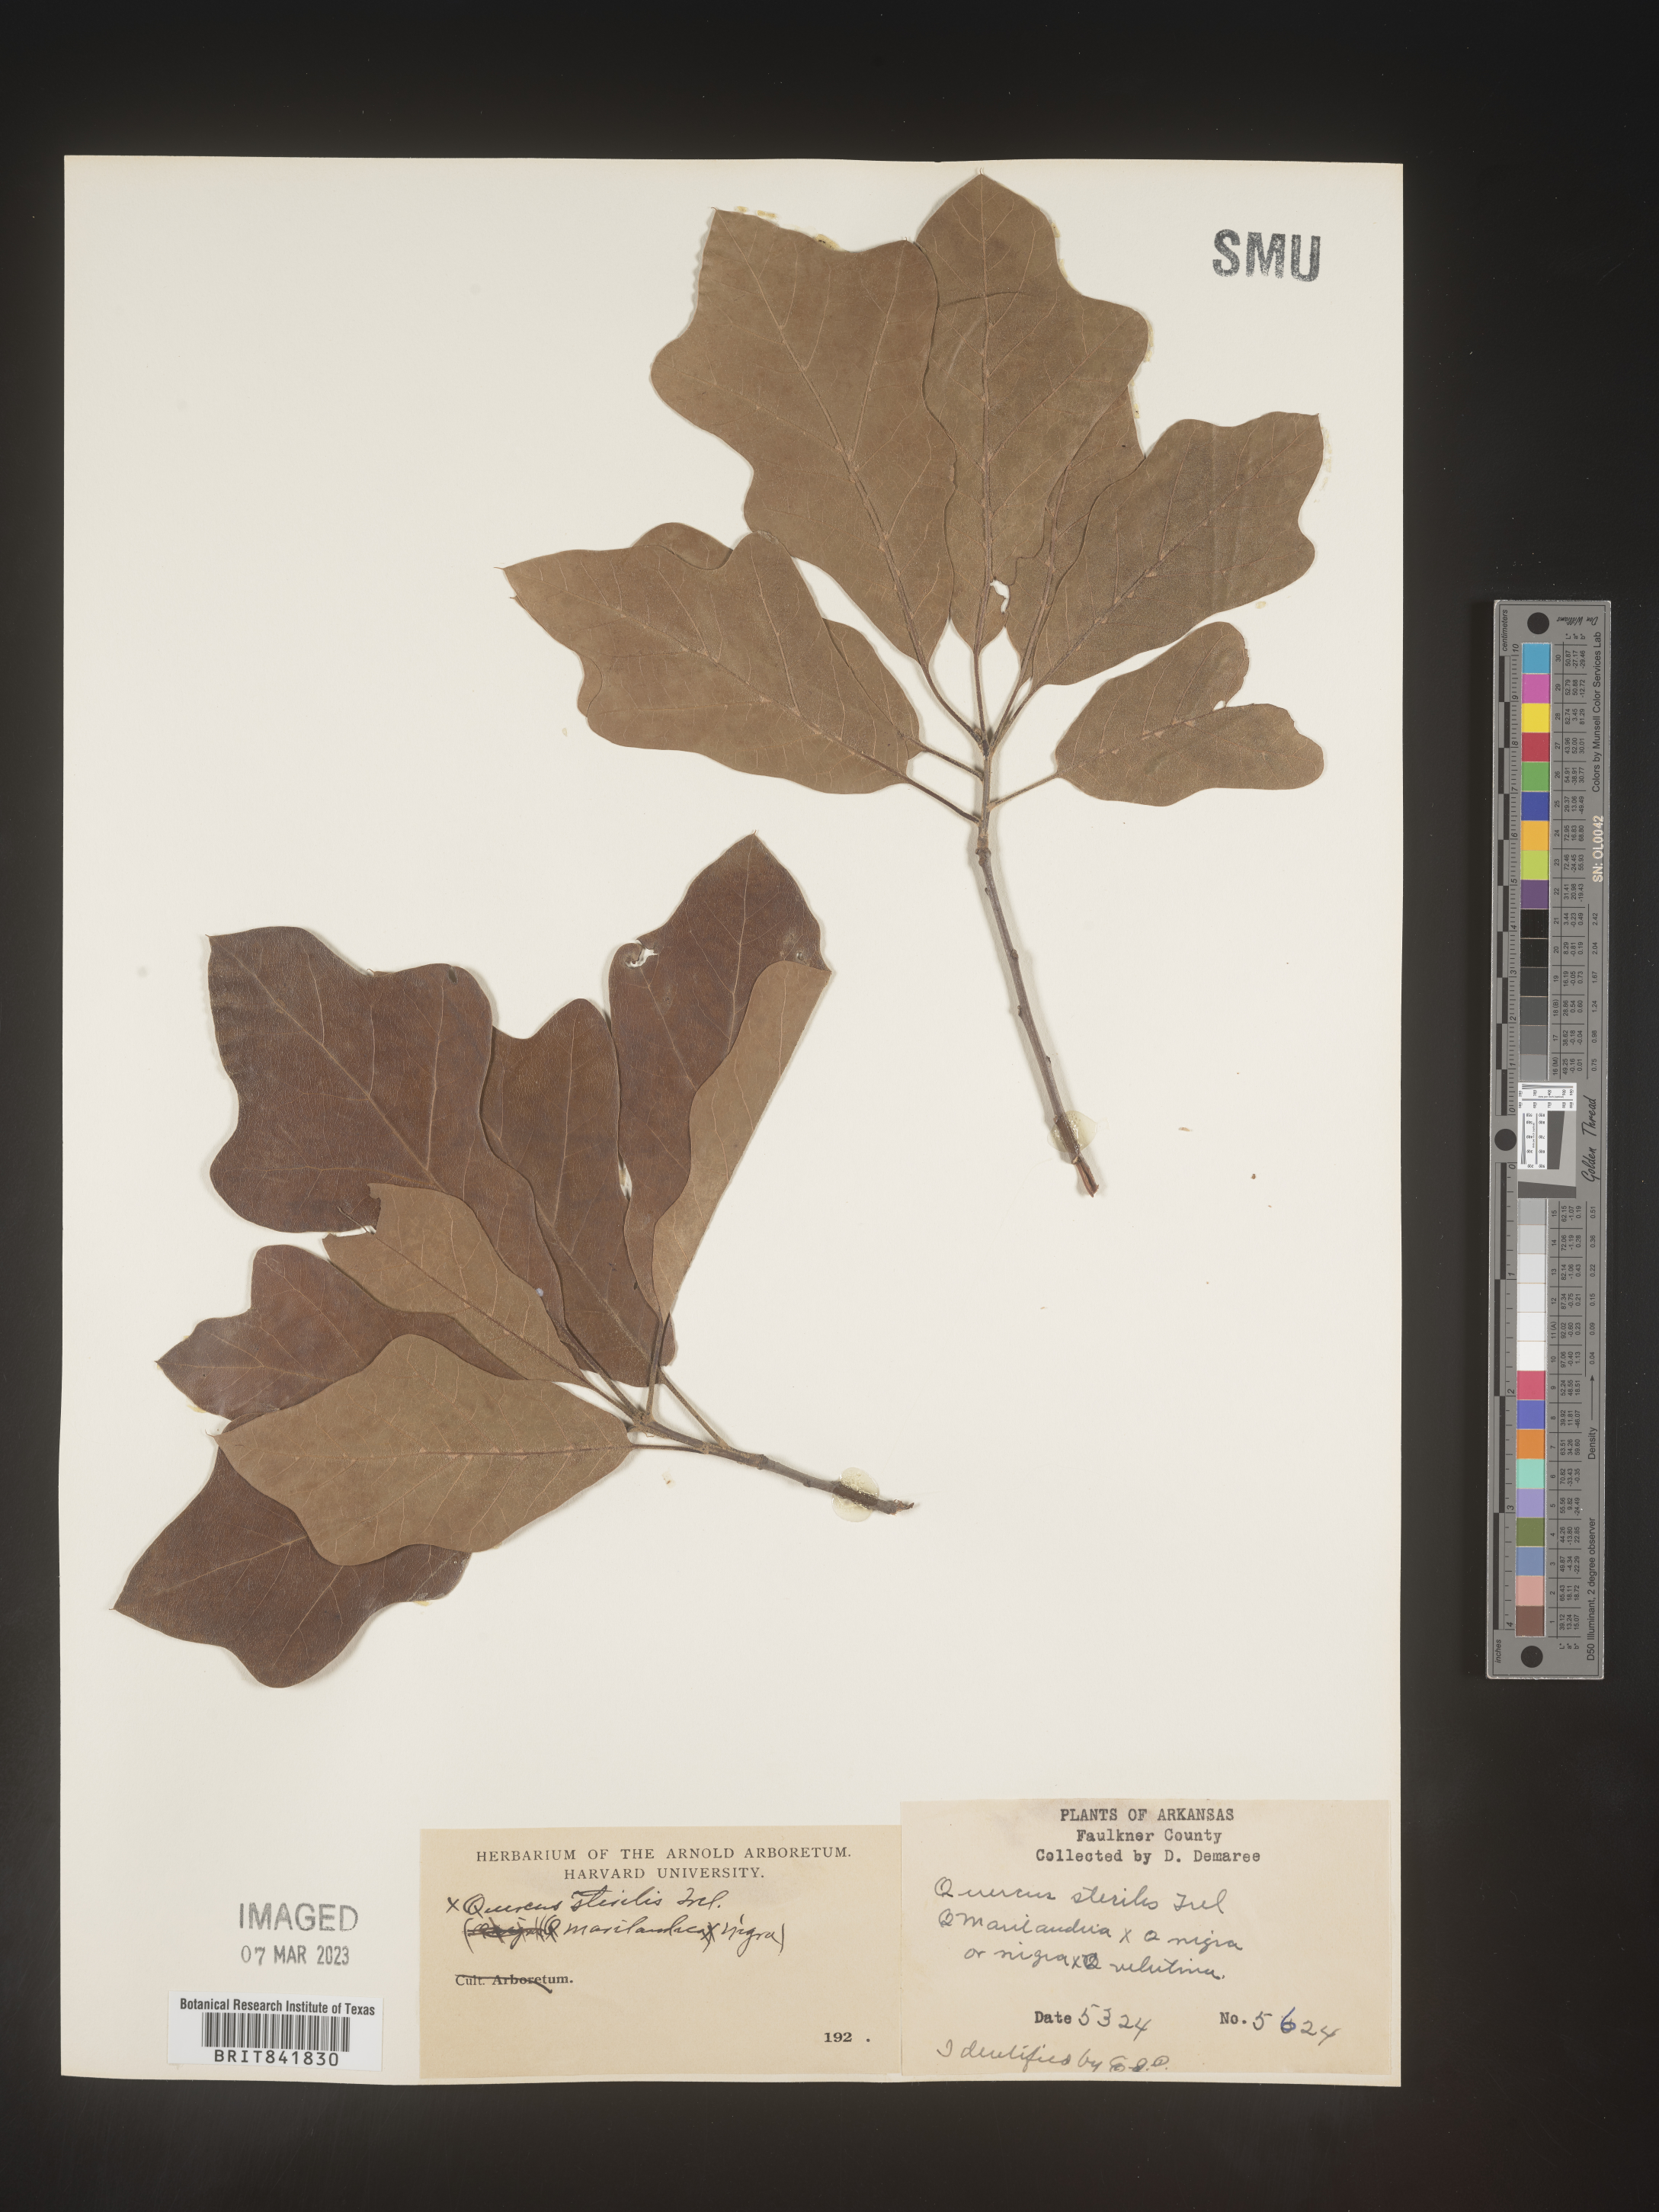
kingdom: Plantae
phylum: Tracheophyta
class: Magnoliopsida
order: Fagales
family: Fagaceae
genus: Quercus
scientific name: Quercus
